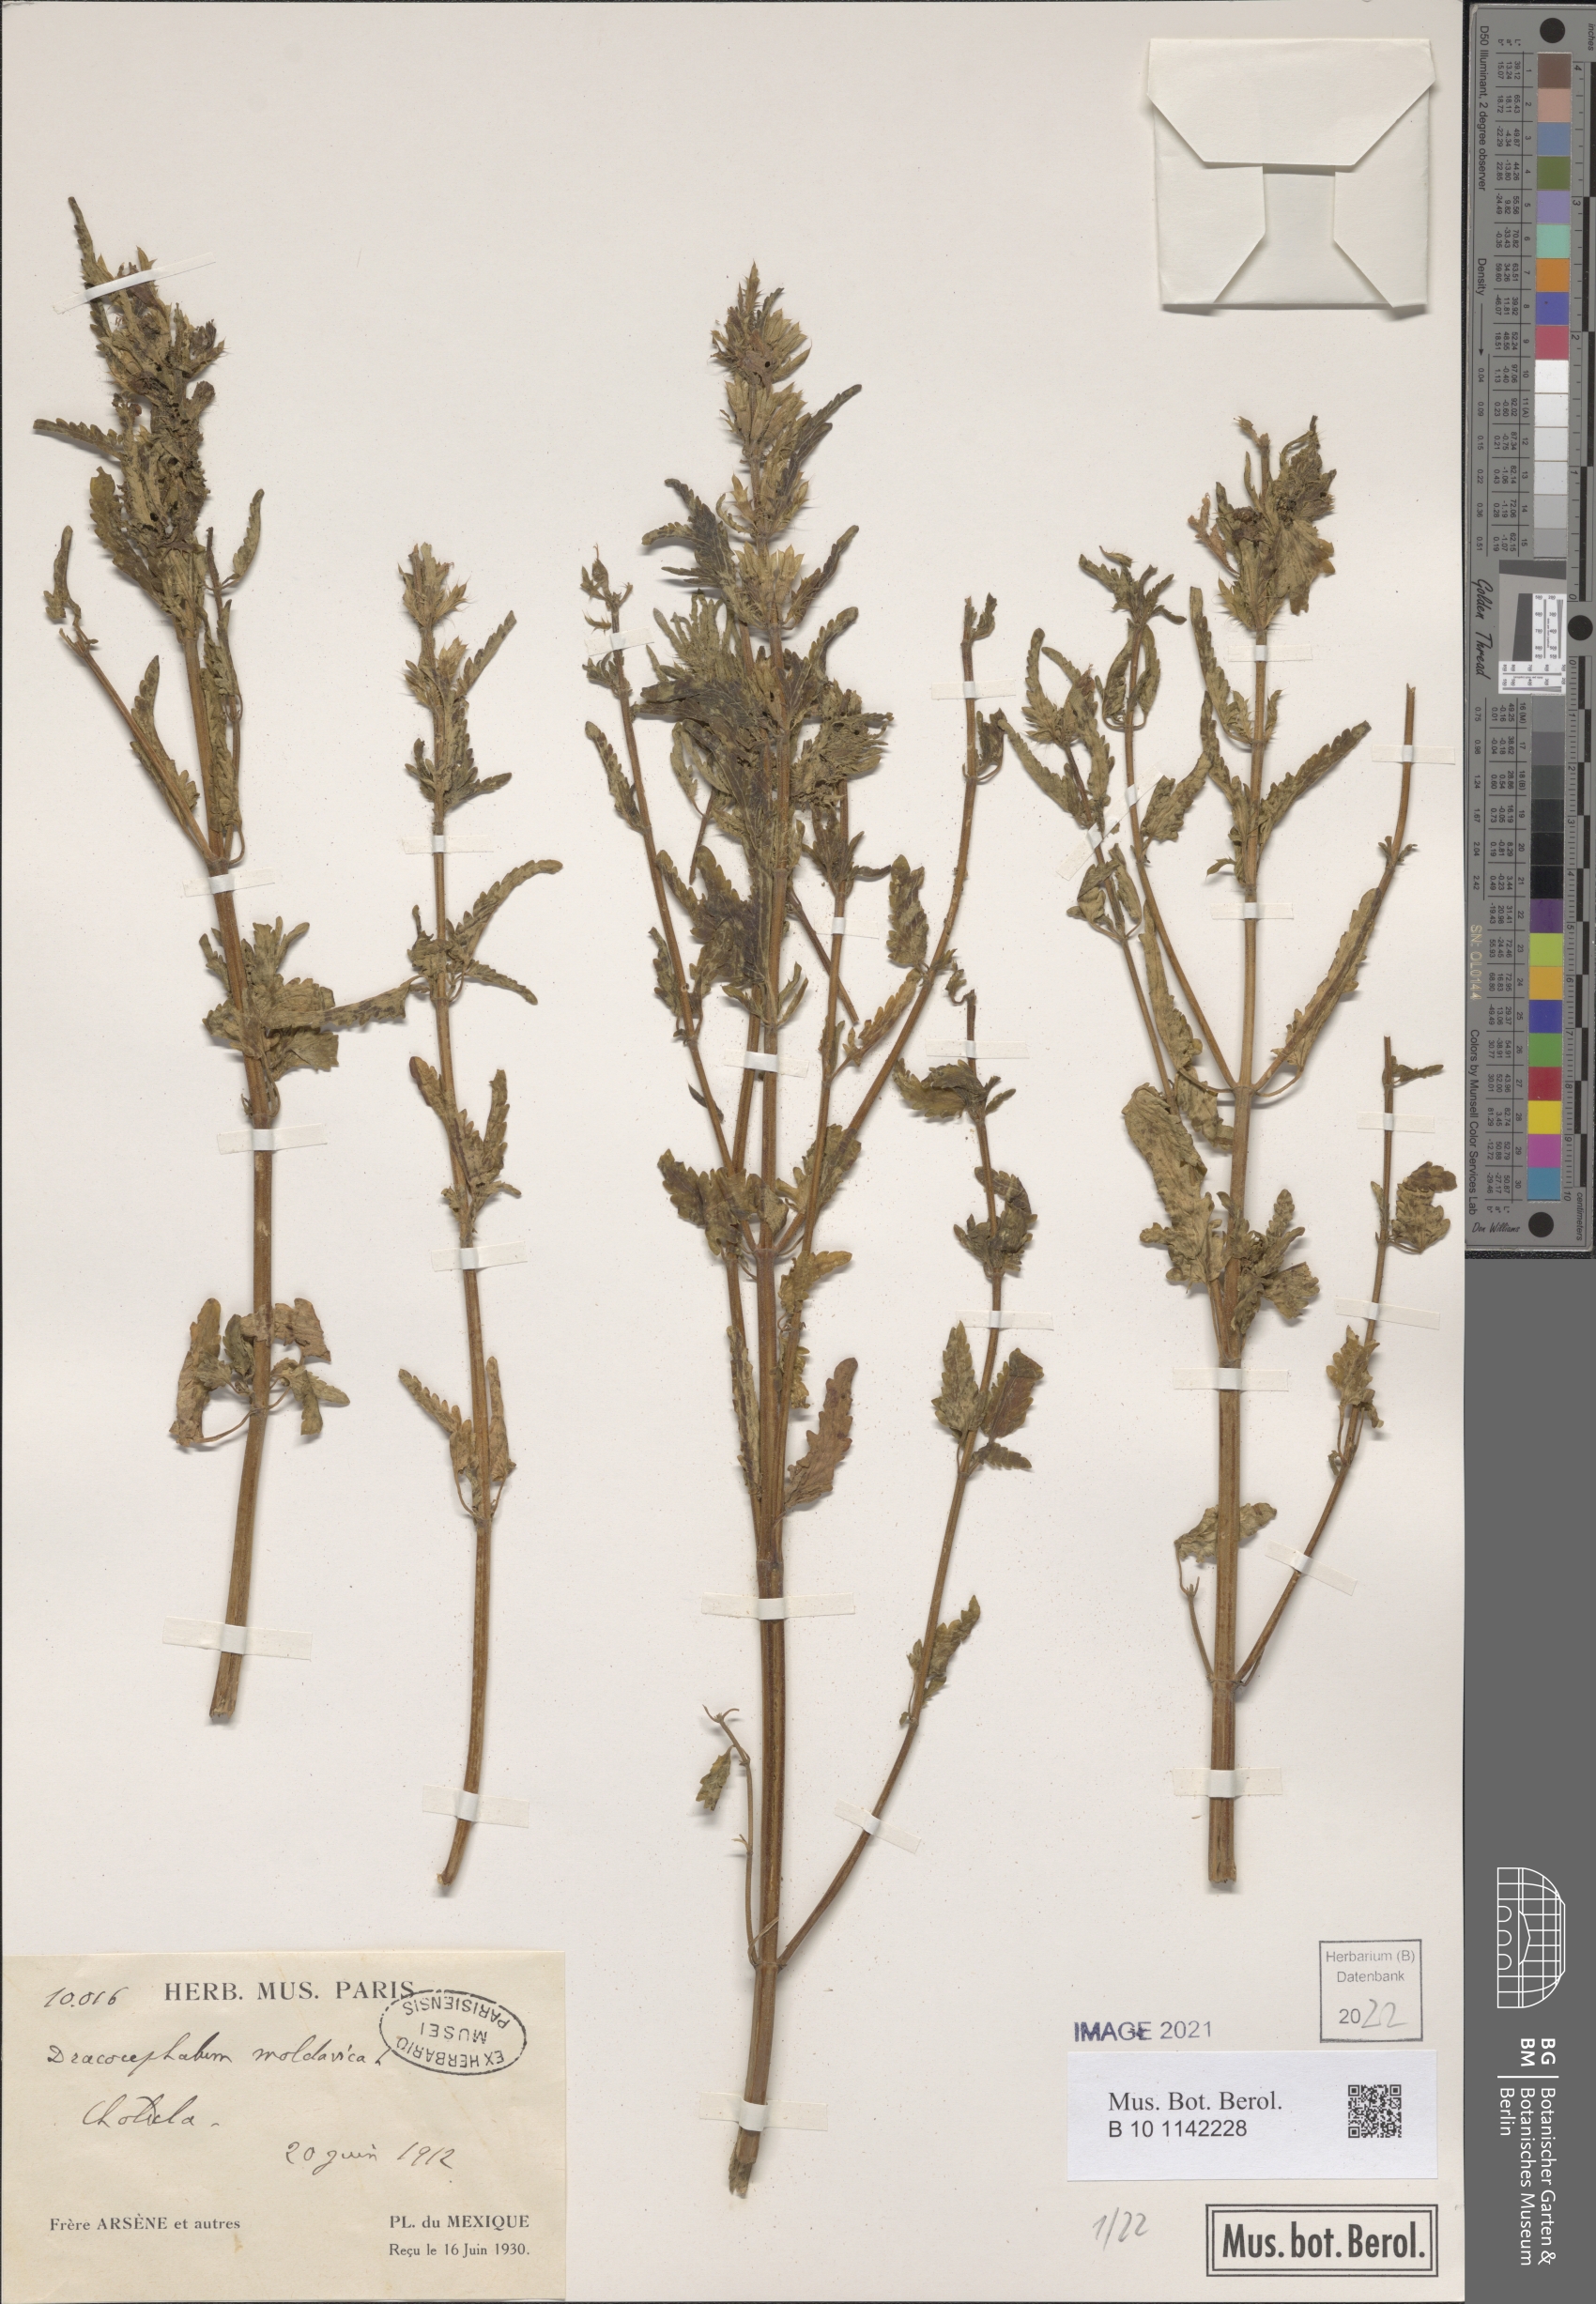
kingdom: Plantae
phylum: Tracheophyta
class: Magnoliopsida
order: Lamiales
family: Lamiaceae
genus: Dracocephalum
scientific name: Dracocephalum moldavica
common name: Moldavian dragonhead
